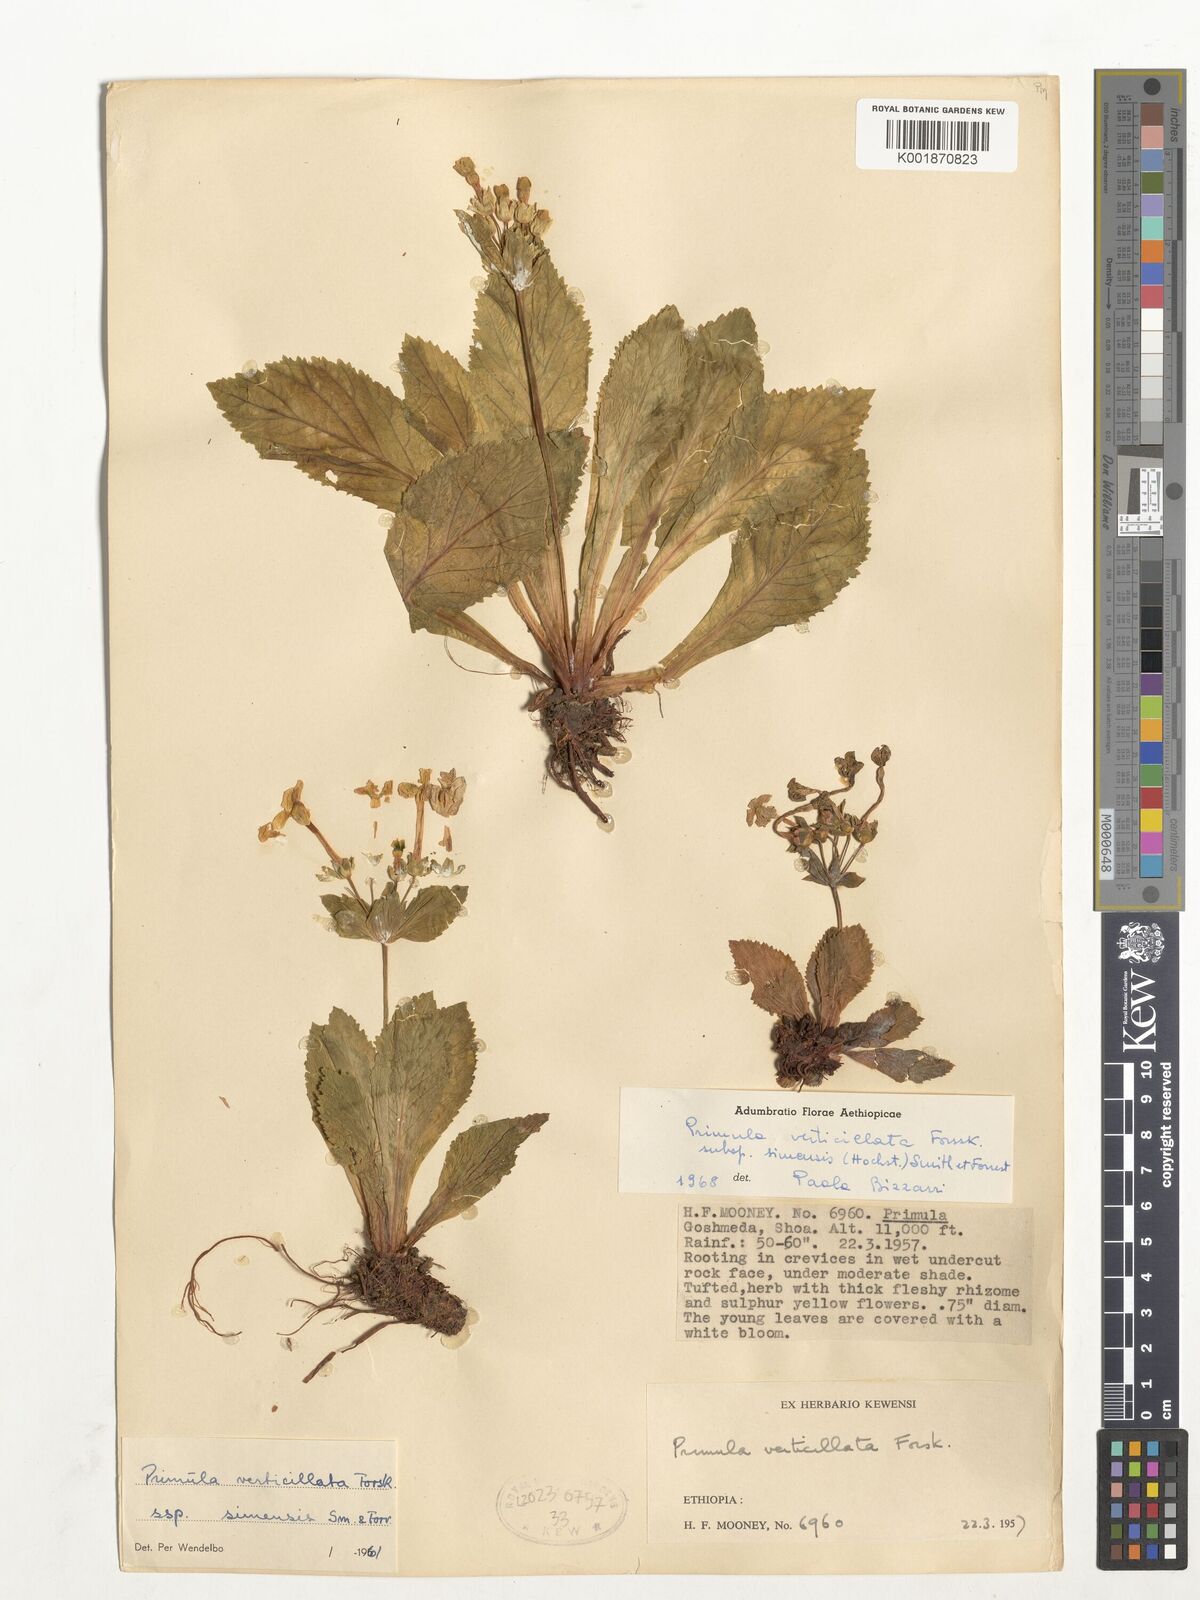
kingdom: Plantae
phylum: Tracheophyta
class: Magnoliopsida
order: Ericales
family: Primulaceae
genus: Evotrochis
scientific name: Evotrochis simensis
